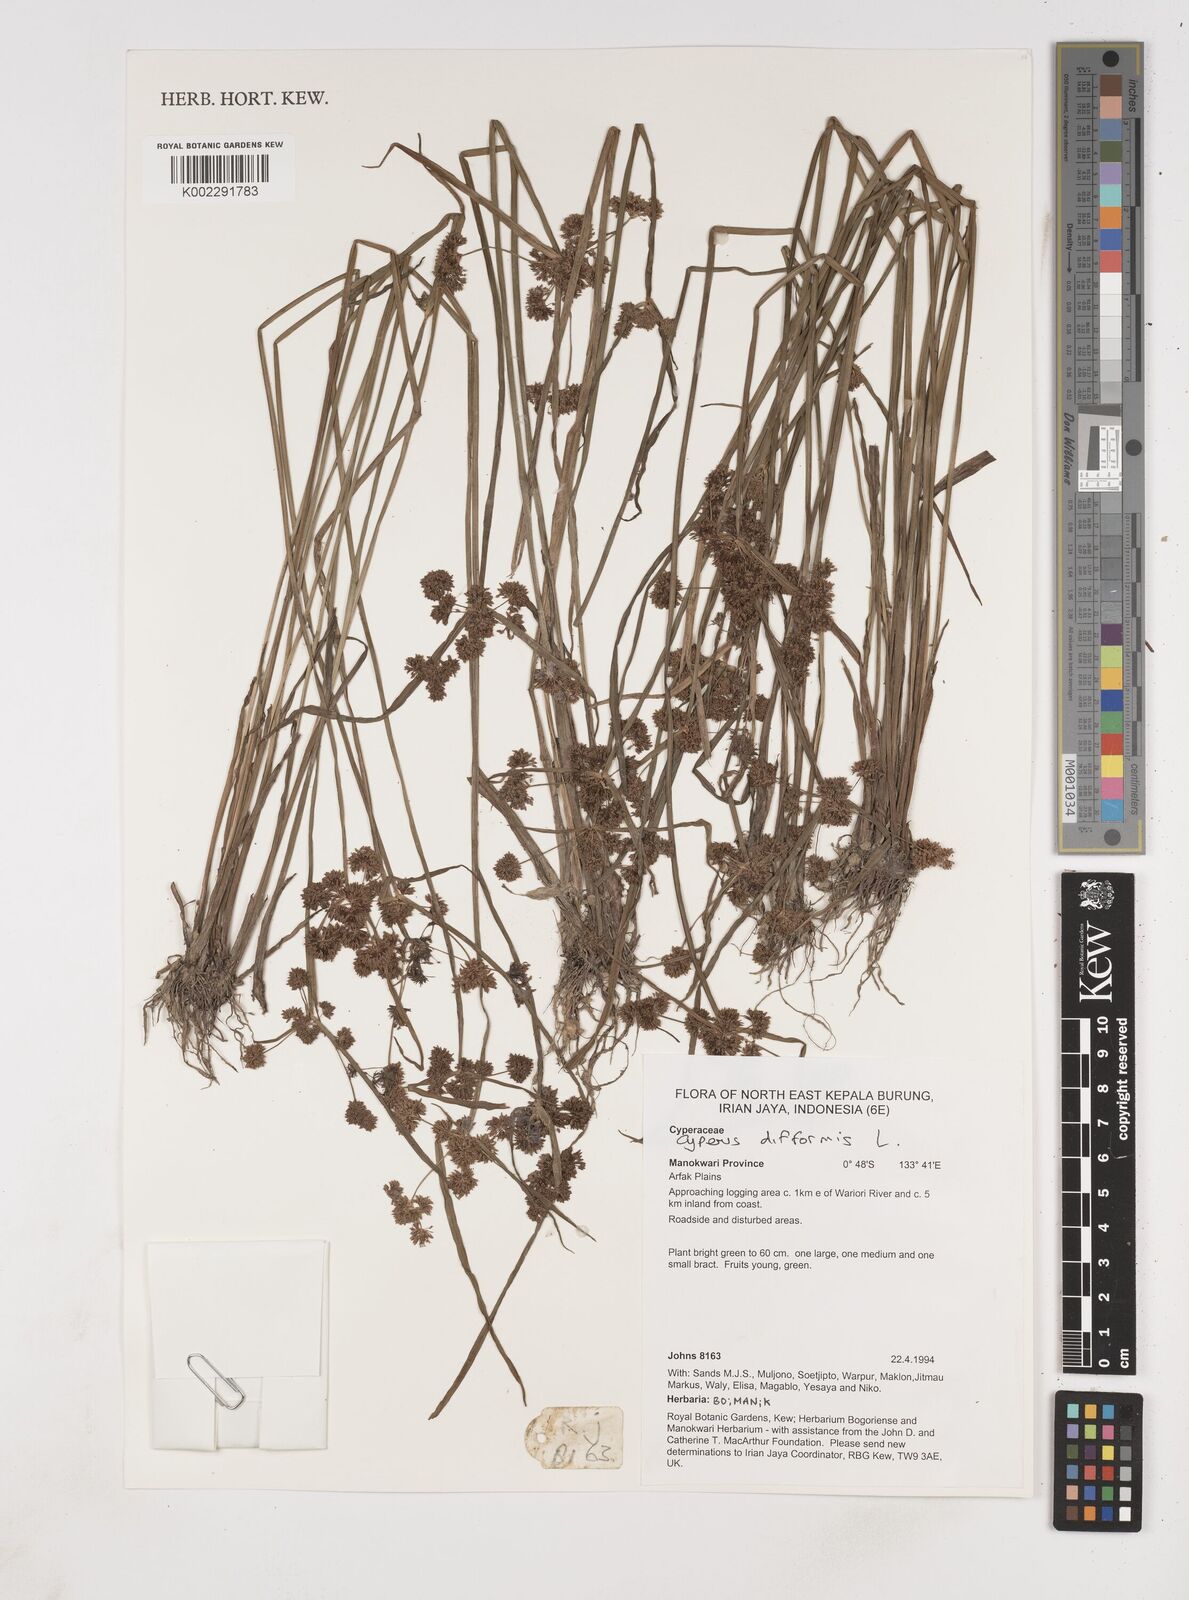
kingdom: Plantae
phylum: Tracheophyta
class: Liliopsida
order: Poales
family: Cyperaceae
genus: Cyperus
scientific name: Cyperus difformis
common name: Variable flatsedge
